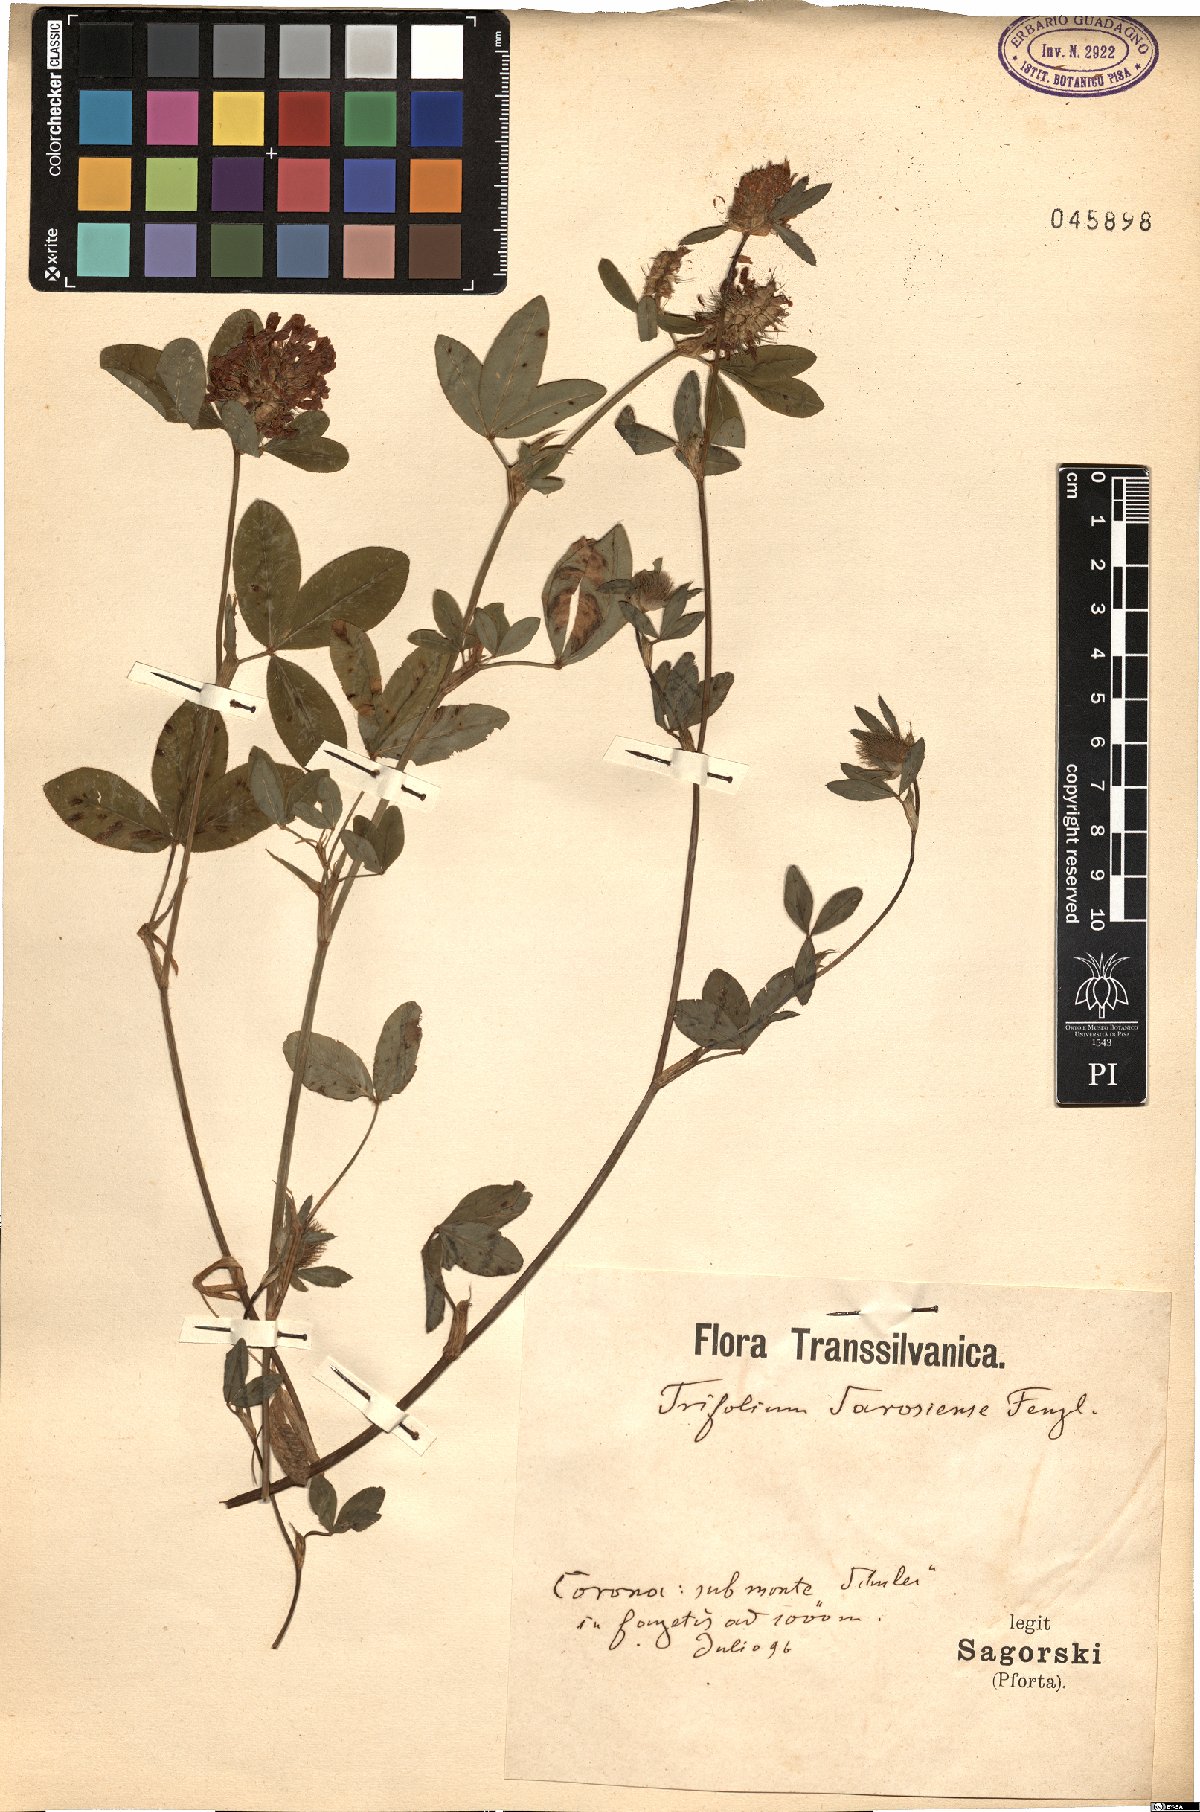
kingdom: Plantae
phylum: Tracheophyta
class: Magnoliopsida
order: Fabales
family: Fabaceae
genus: Trifolium
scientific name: Trifolium sarosiense
